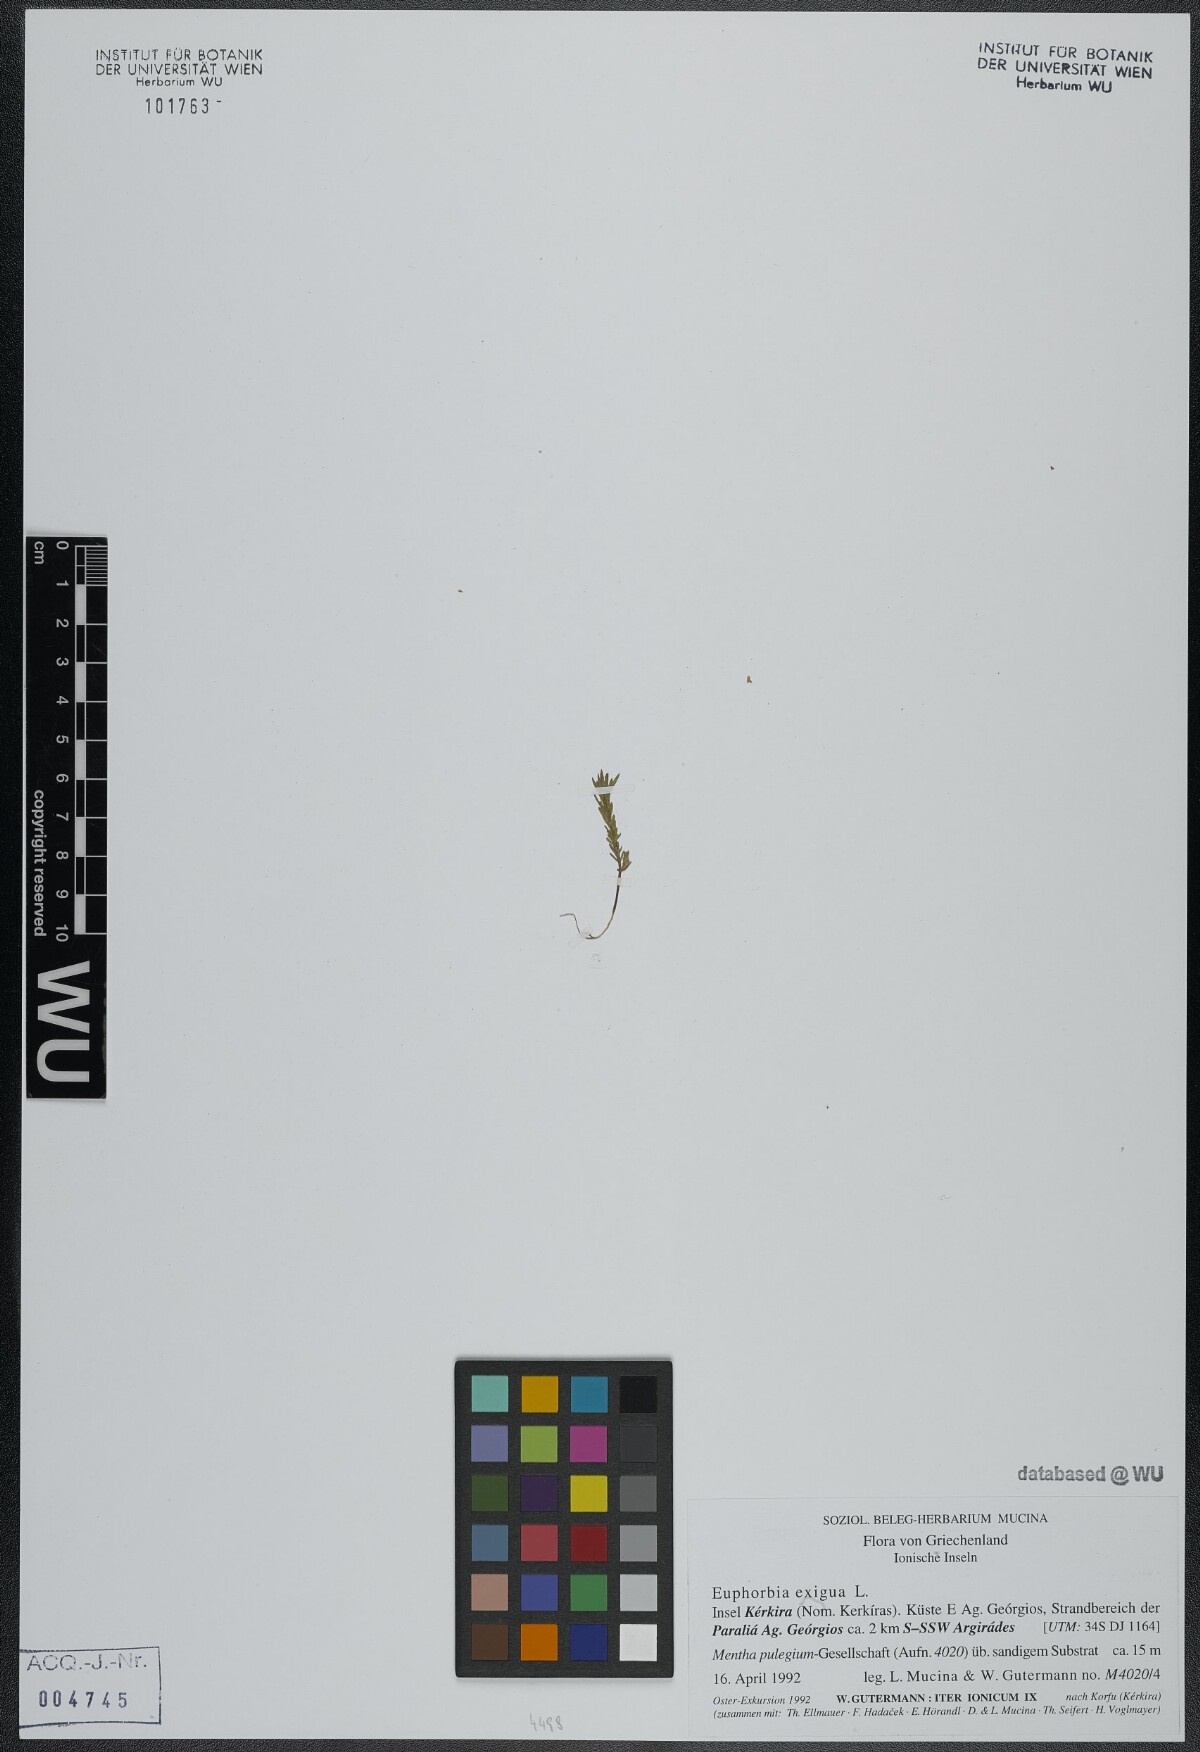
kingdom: Plantae
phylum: Tracheophyta
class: Magnoliopsida
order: Malpighiales
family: Euphorbiaceae
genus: Euphorbia
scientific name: Euphorbia exigua
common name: Dwarf spurge
